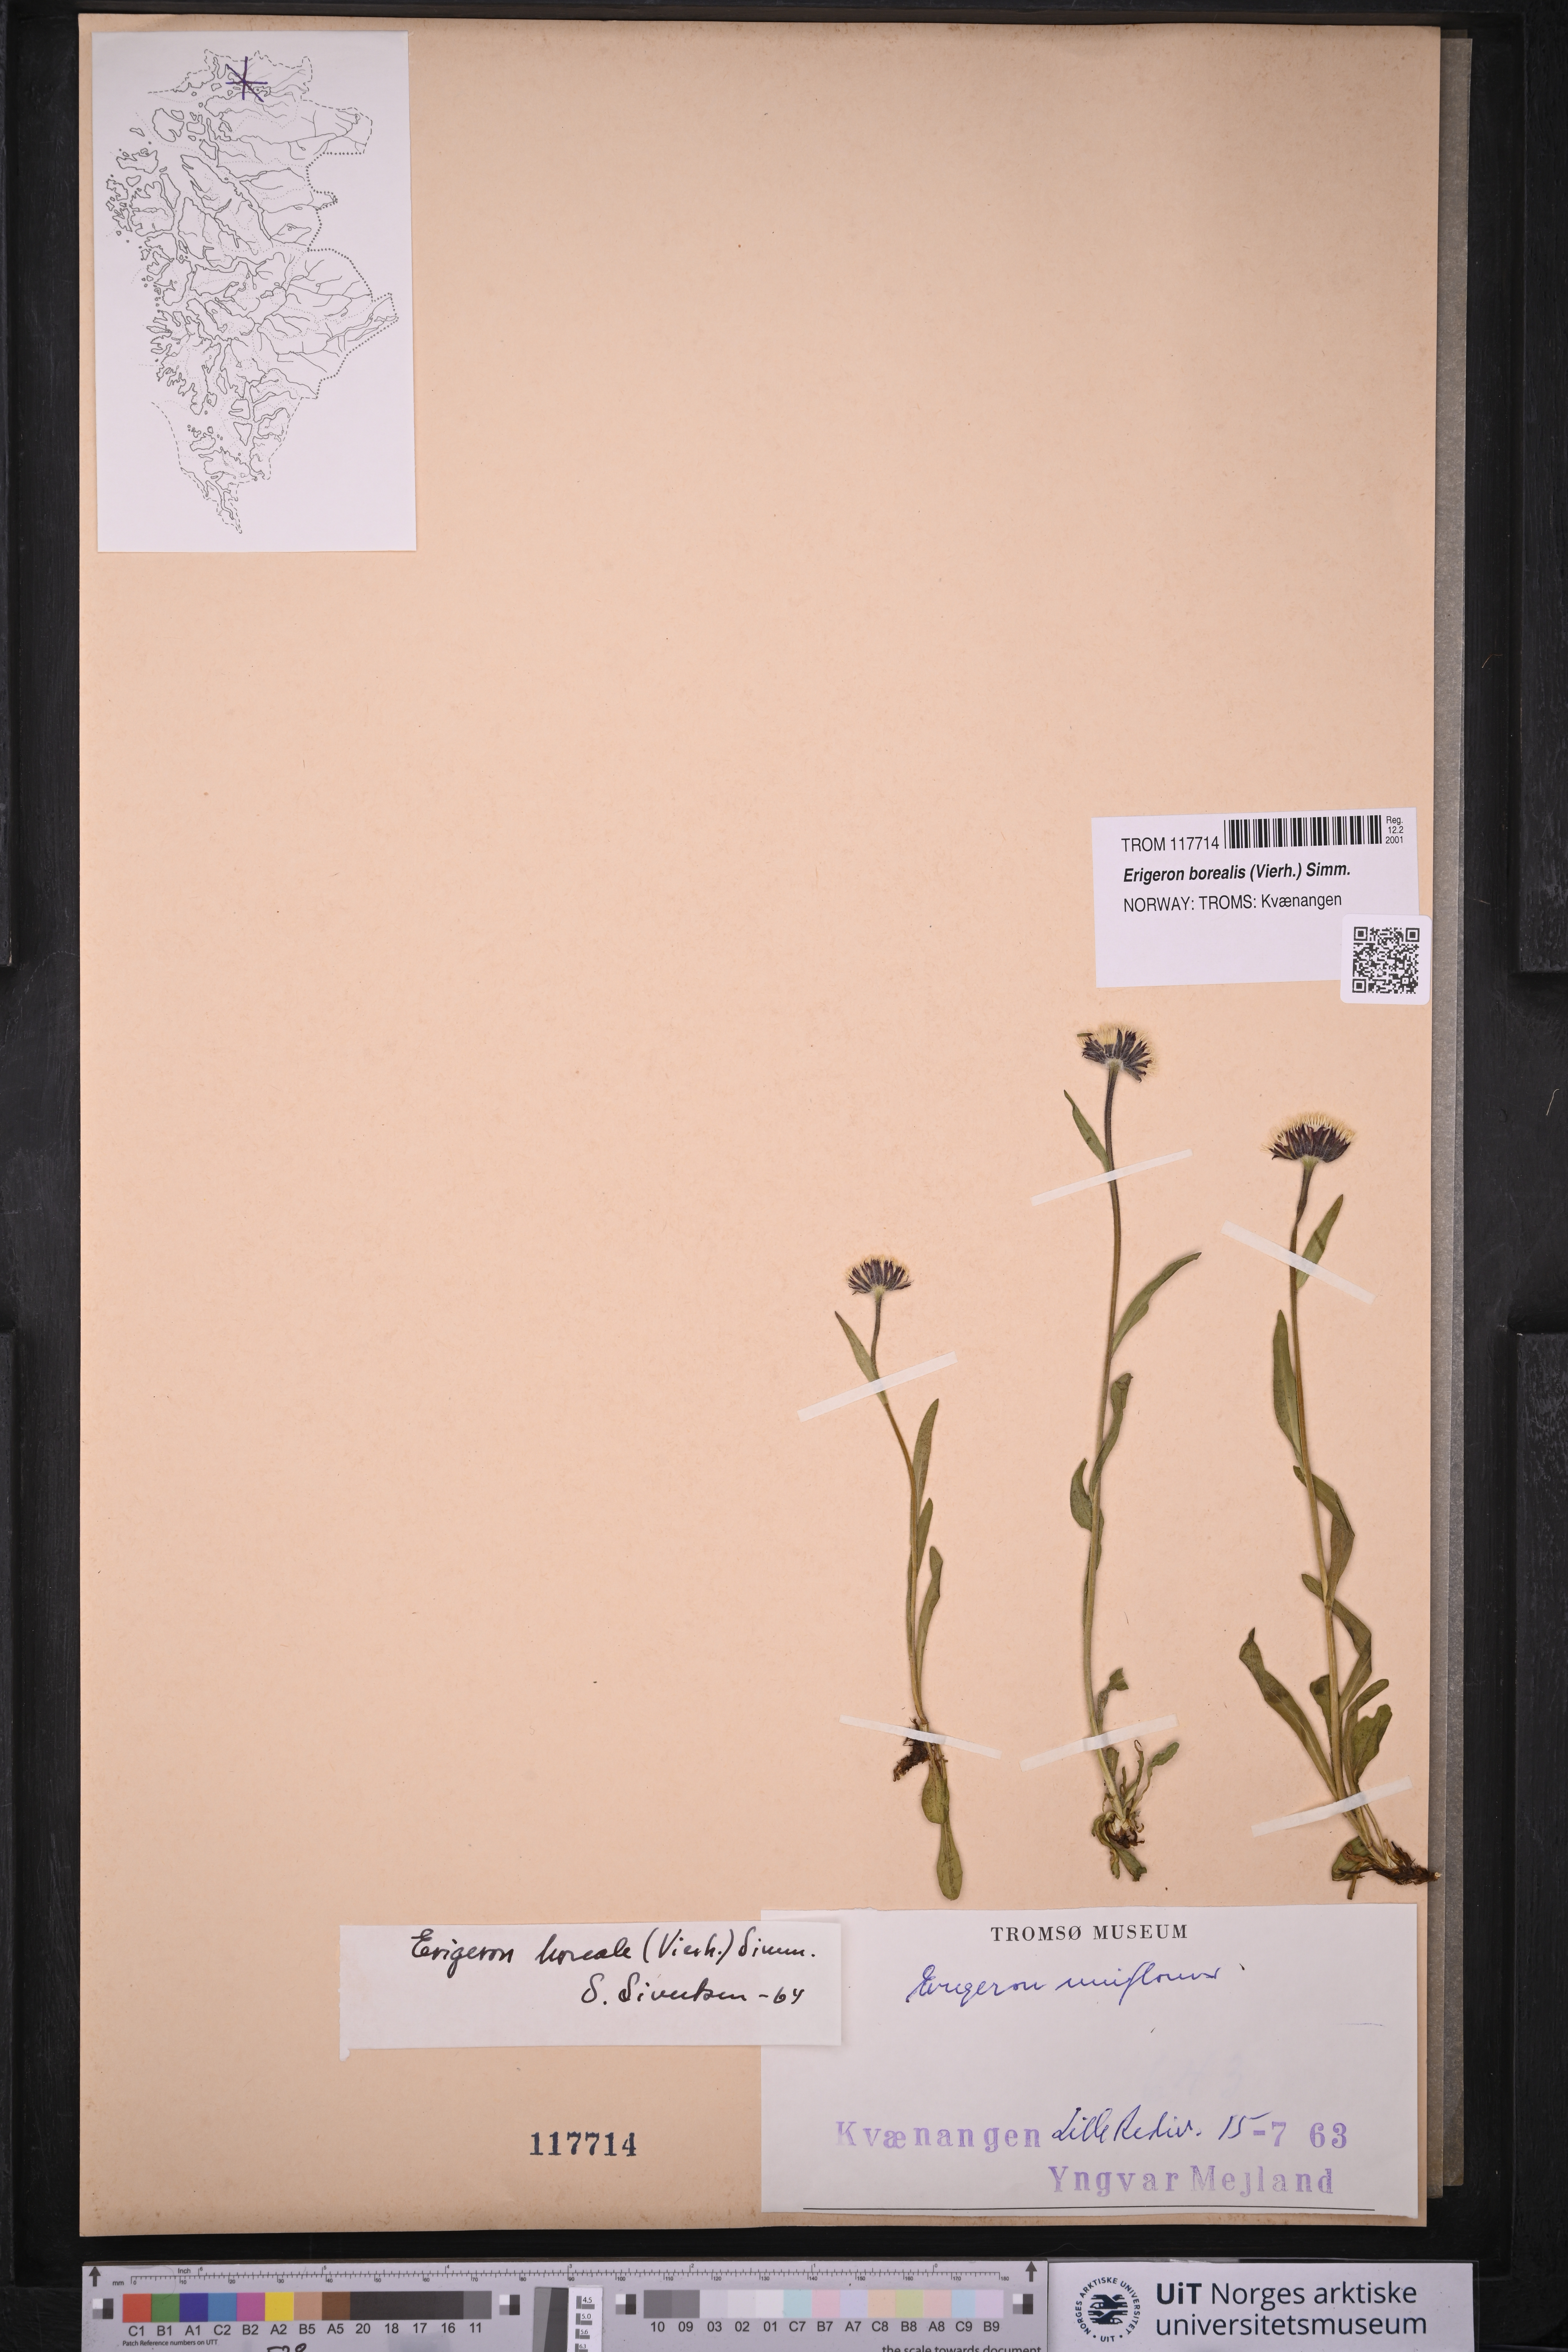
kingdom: Plantae
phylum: Tracheophyta
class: Magnoliopsida
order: Asterales
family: Asteraceae
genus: Erigeron
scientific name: Erigeron borealis
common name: Alpine fleabane
